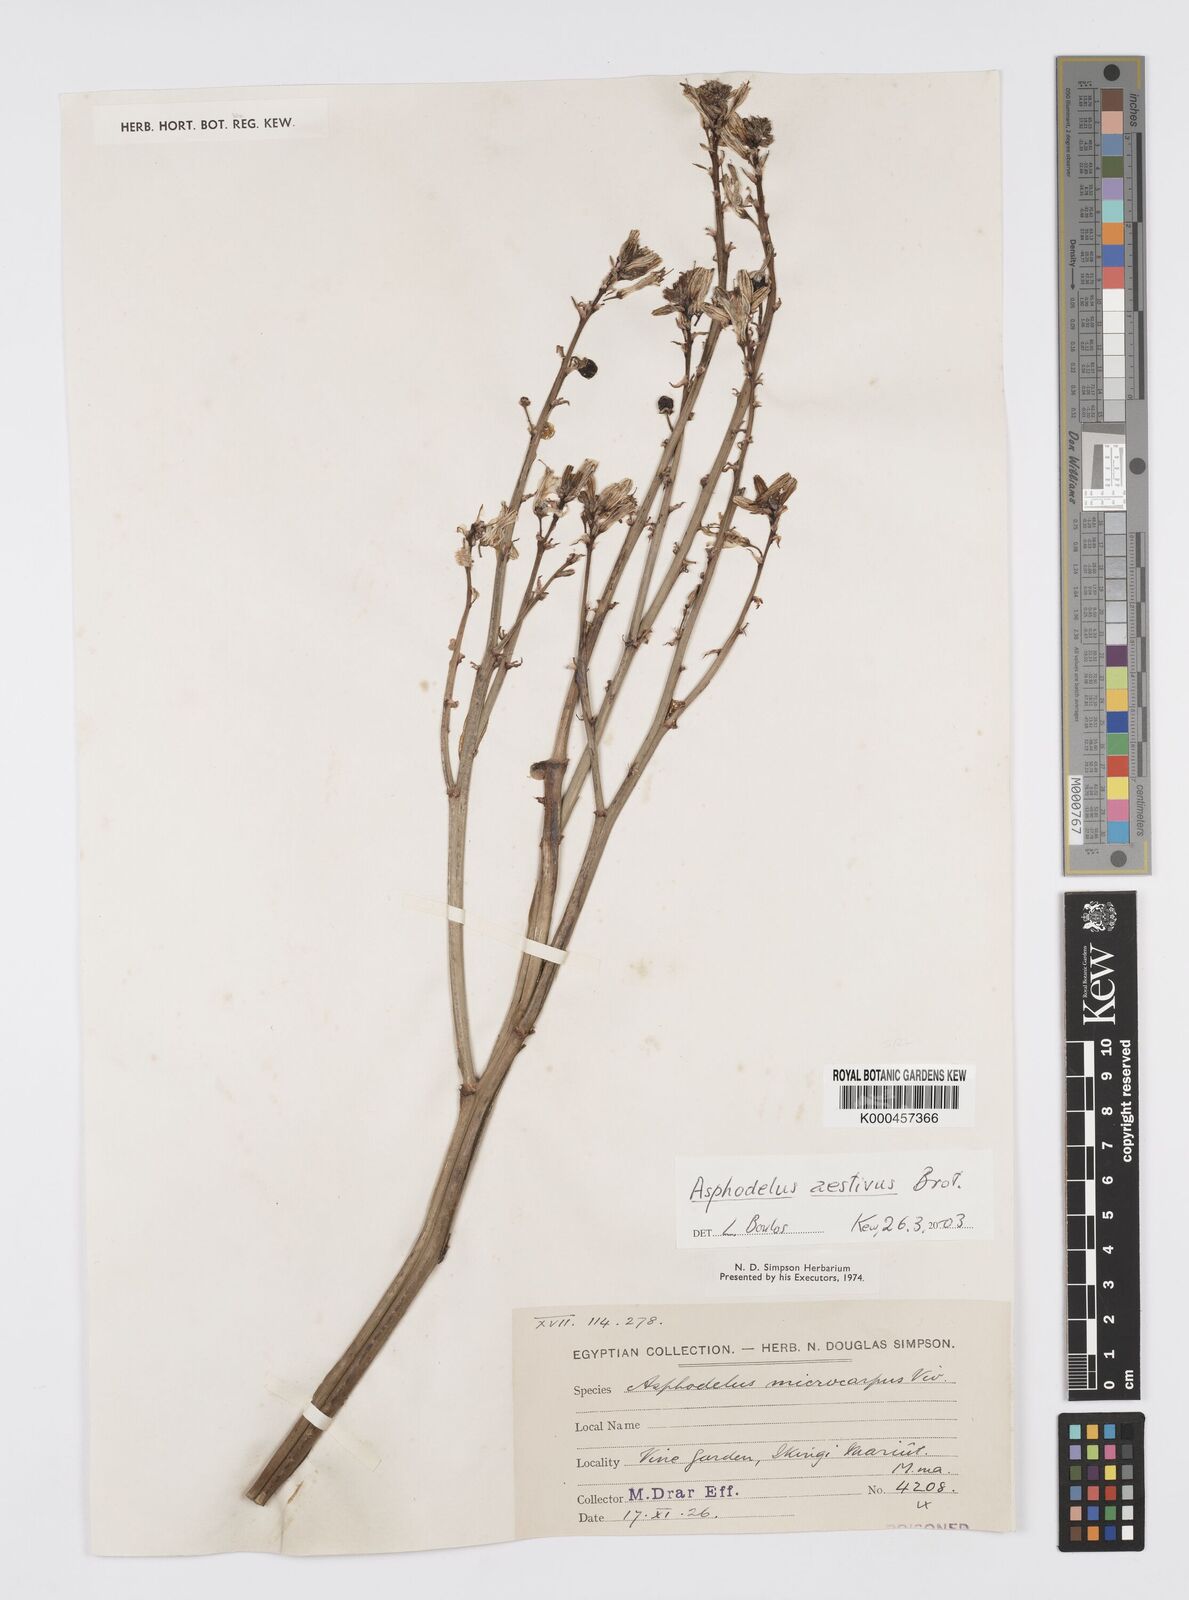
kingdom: Plantae
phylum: Tracheophyta
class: Liliopsida
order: Asparagales
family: Asphodelaceae
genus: Asphodelus
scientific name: Asphodelus aestivus
